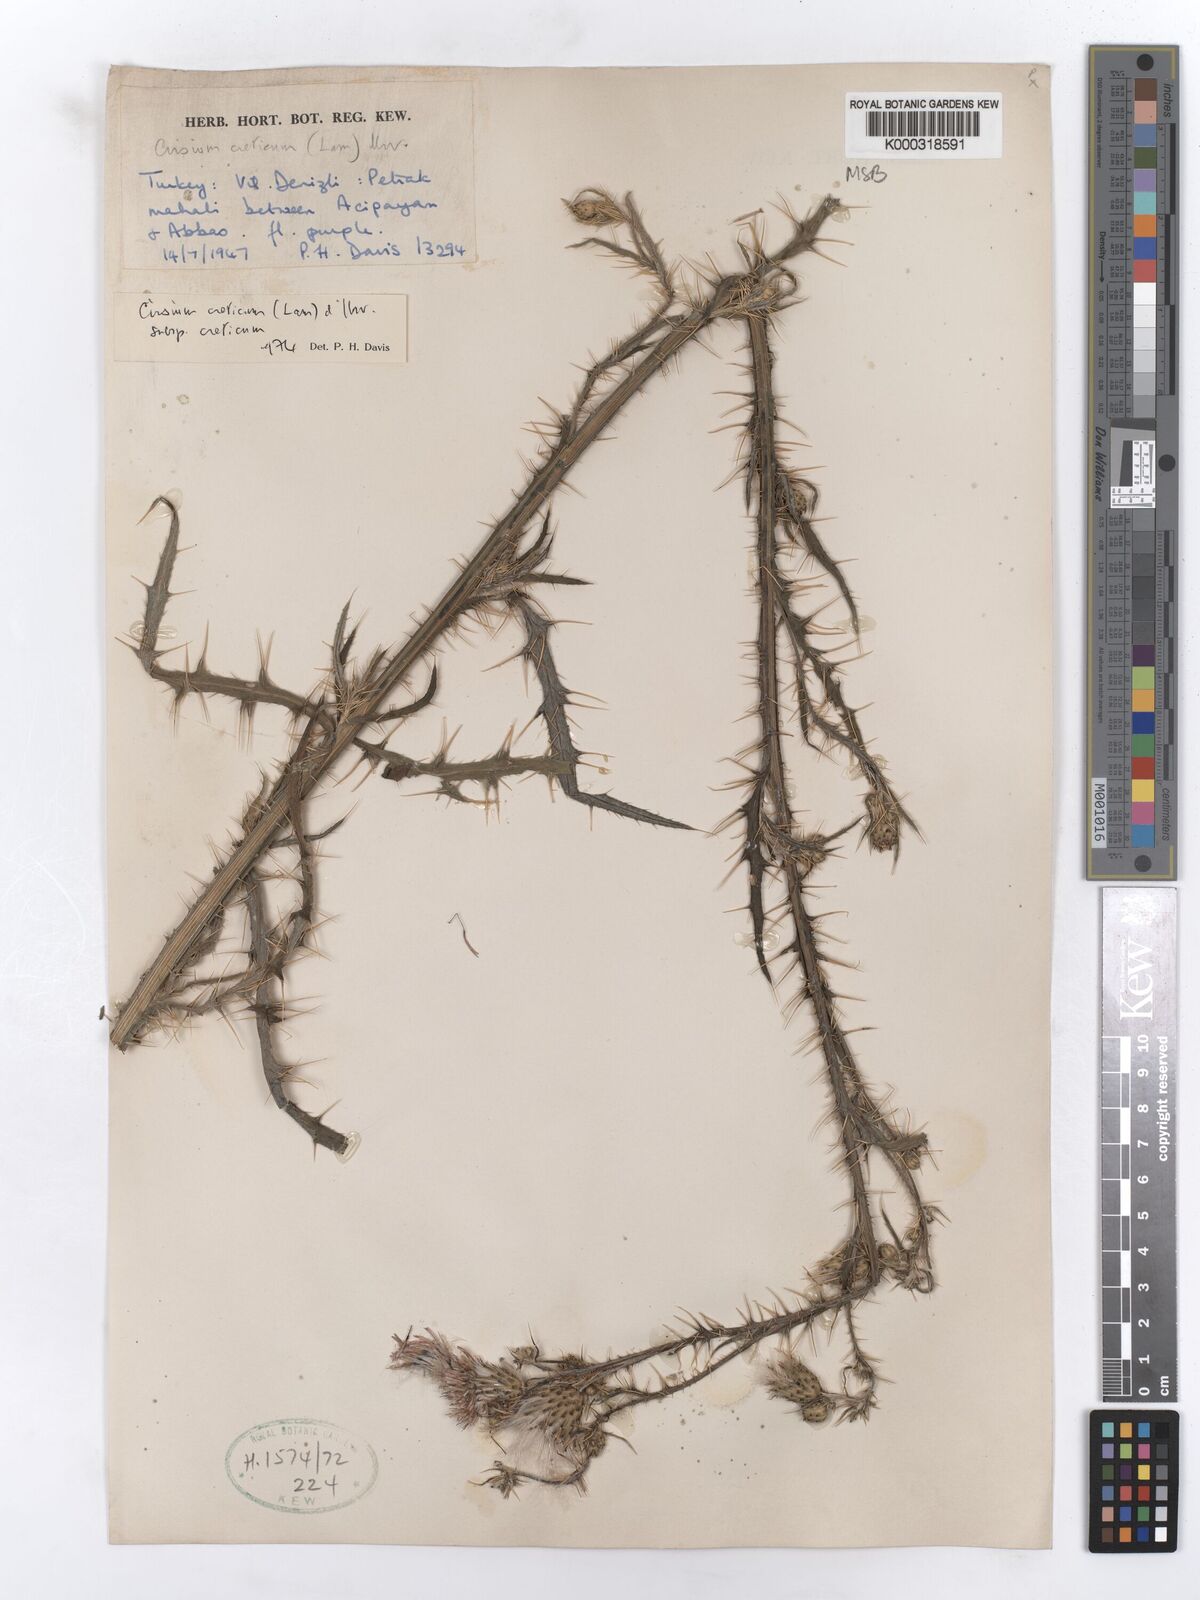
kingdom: Plantae
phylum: Tracheophyta
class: Magnoliopsida
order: Asterales
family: Asteraceae
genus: Cirsium
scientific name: Cirsium creticum
